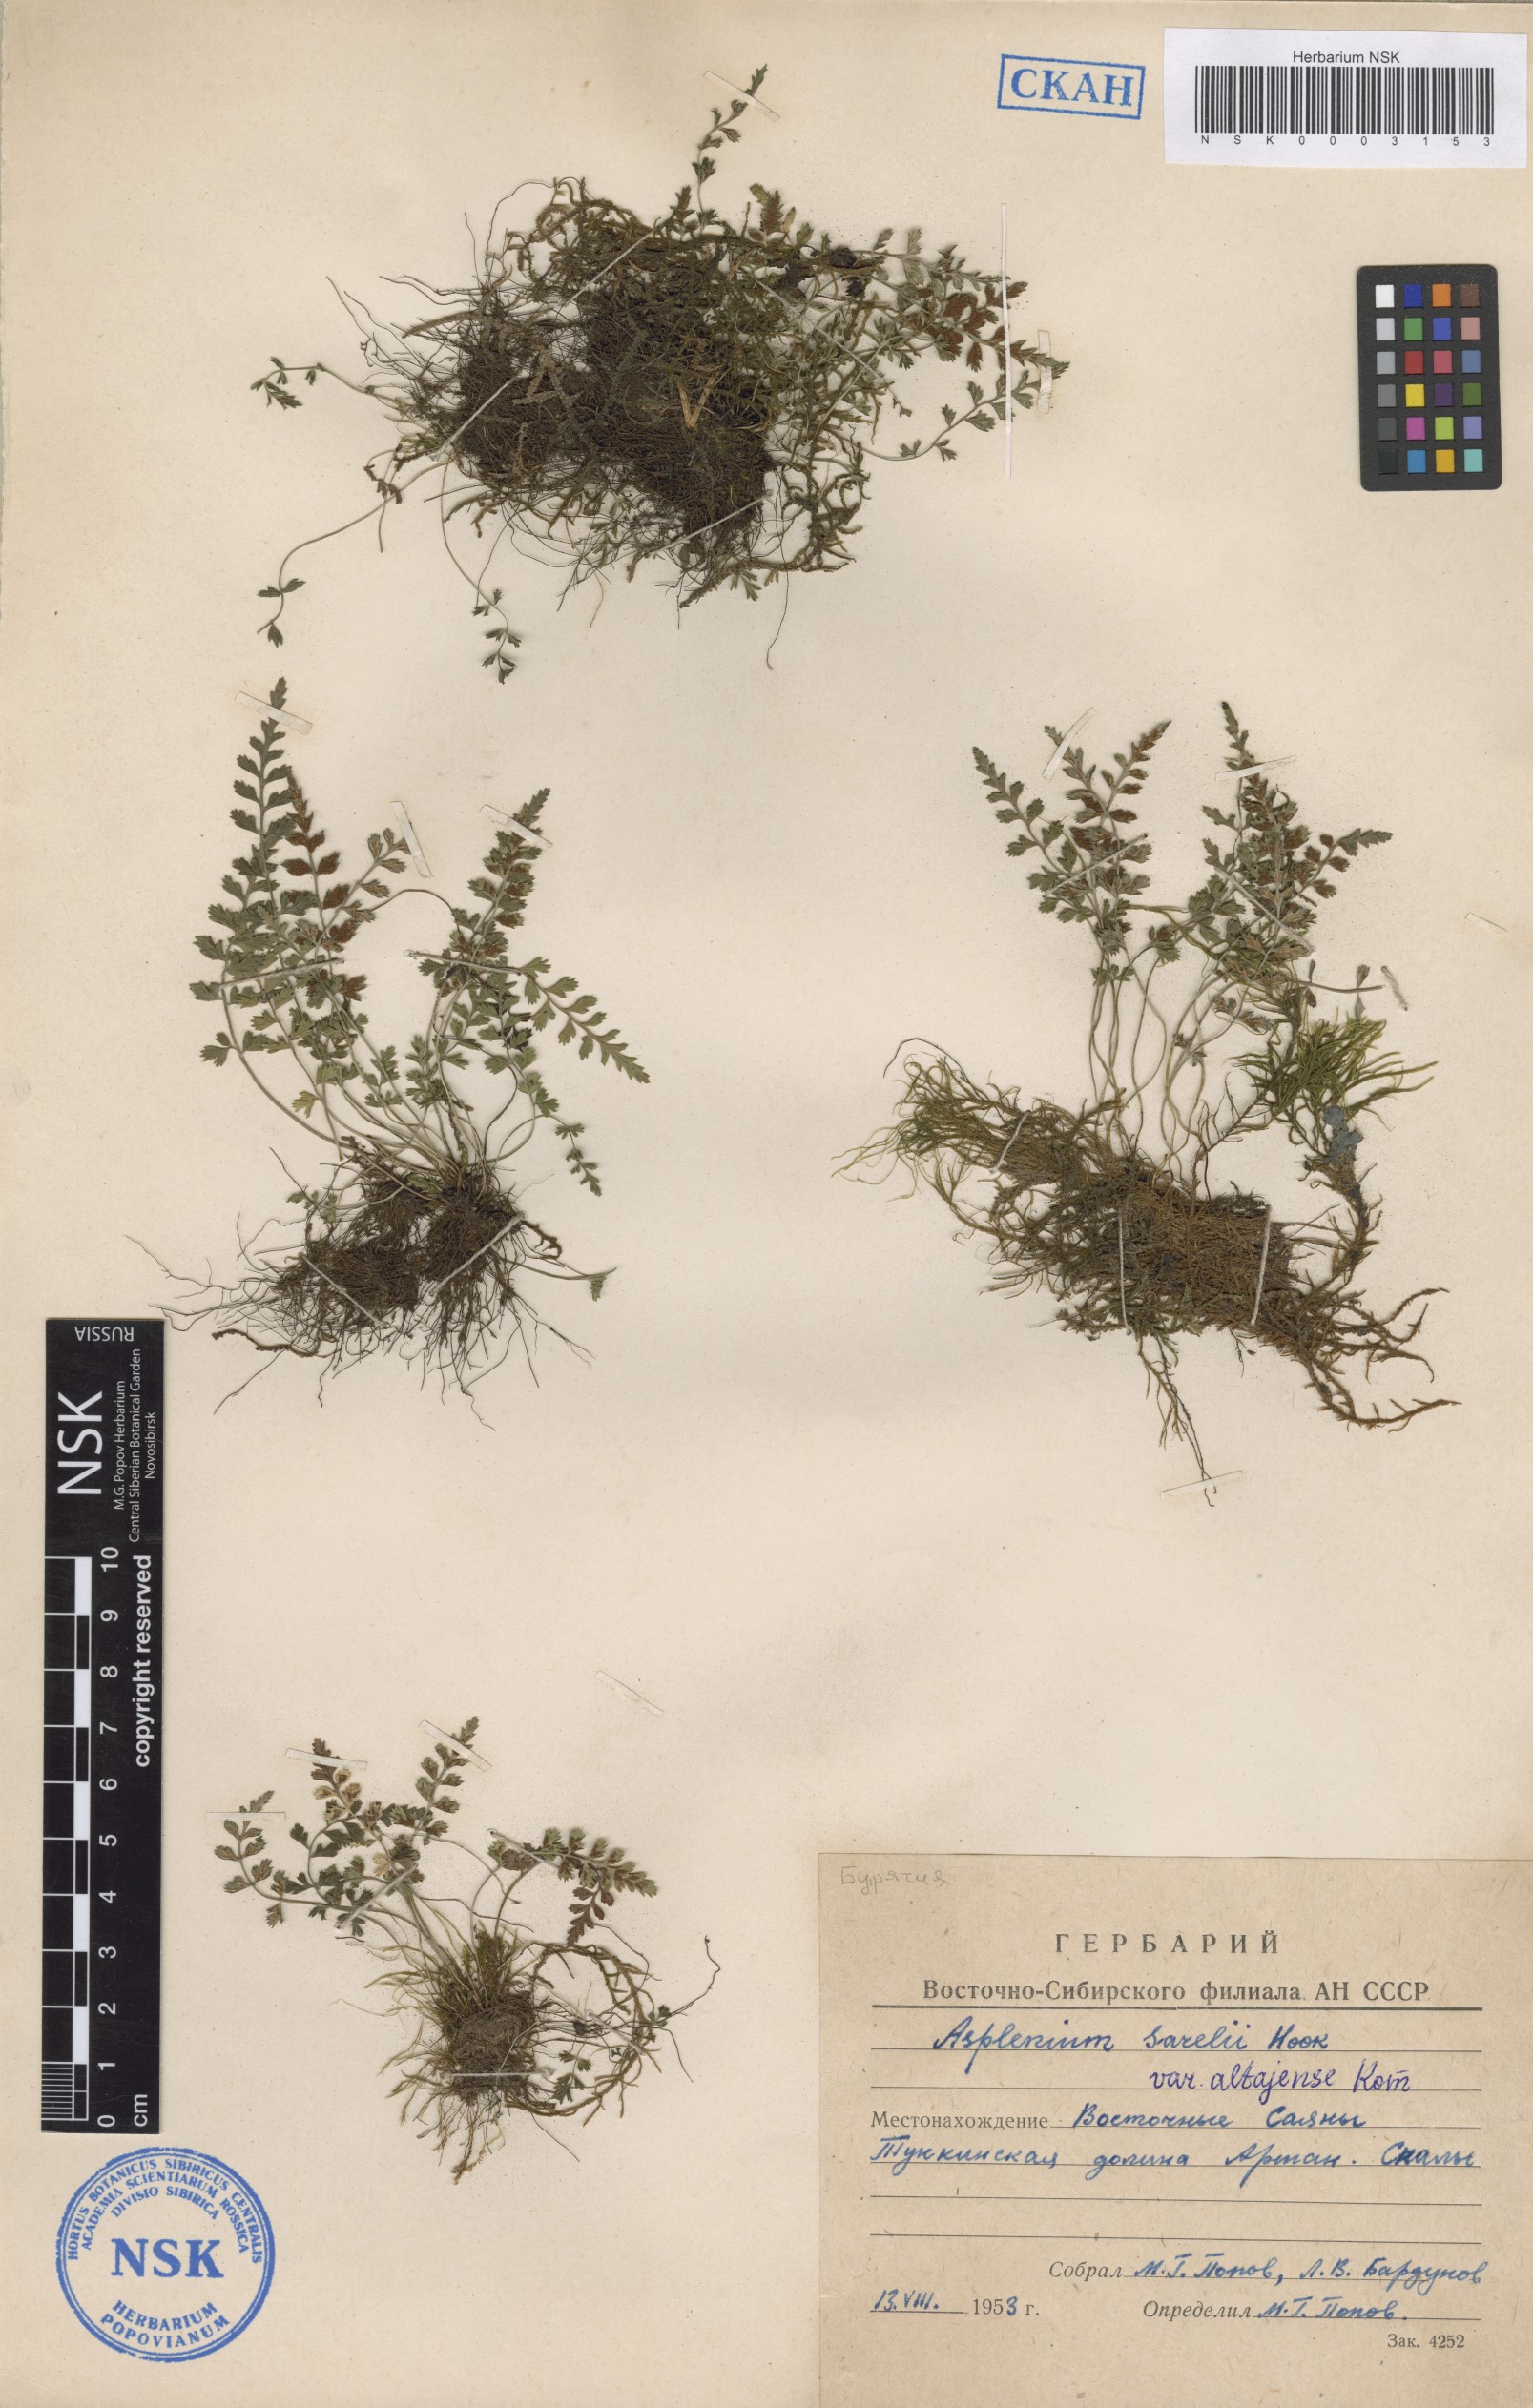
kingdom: Plantae
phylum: Tracheophyta
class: Polypodiopsida
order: Polypodiales
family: Aspleniaceae
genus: Asplenium
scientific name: Asplenium altajense
